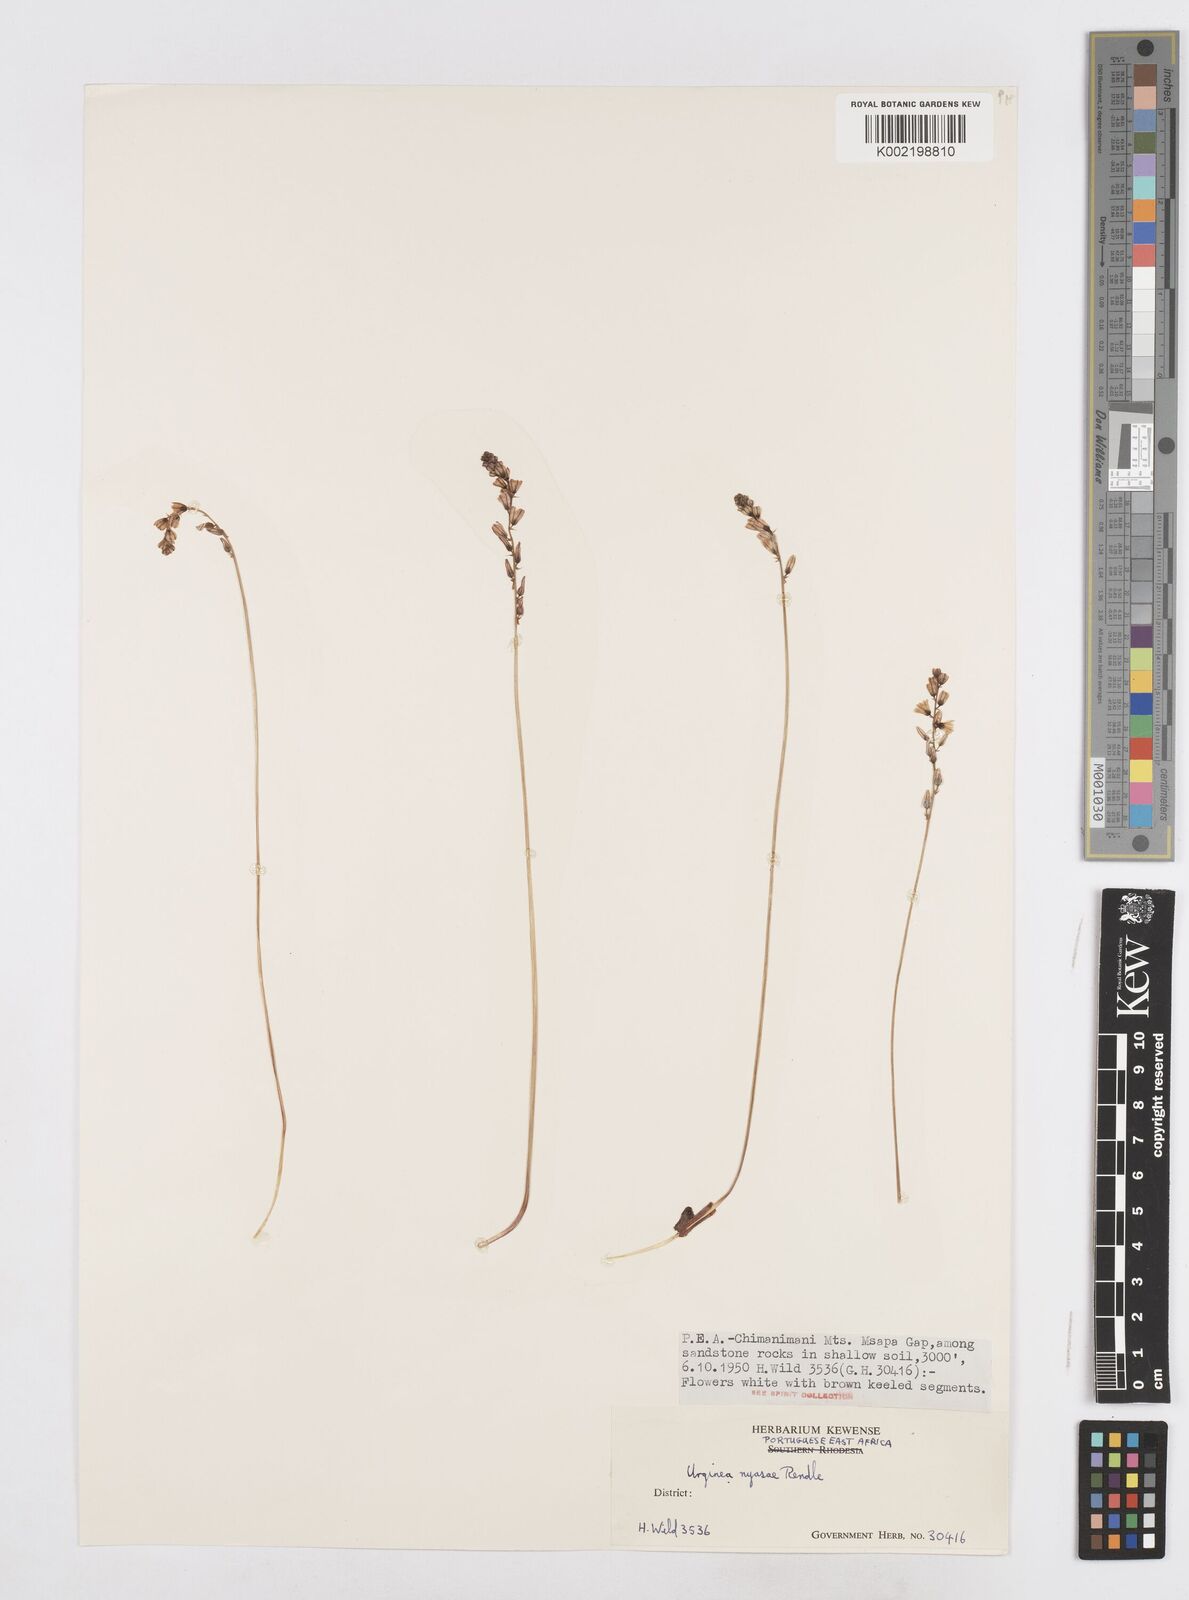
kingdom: Plantae
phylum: Tracheophyta
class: Liliopsida
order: Asparagales
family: Asparagaceae
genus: Drimia
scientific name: Drimia
